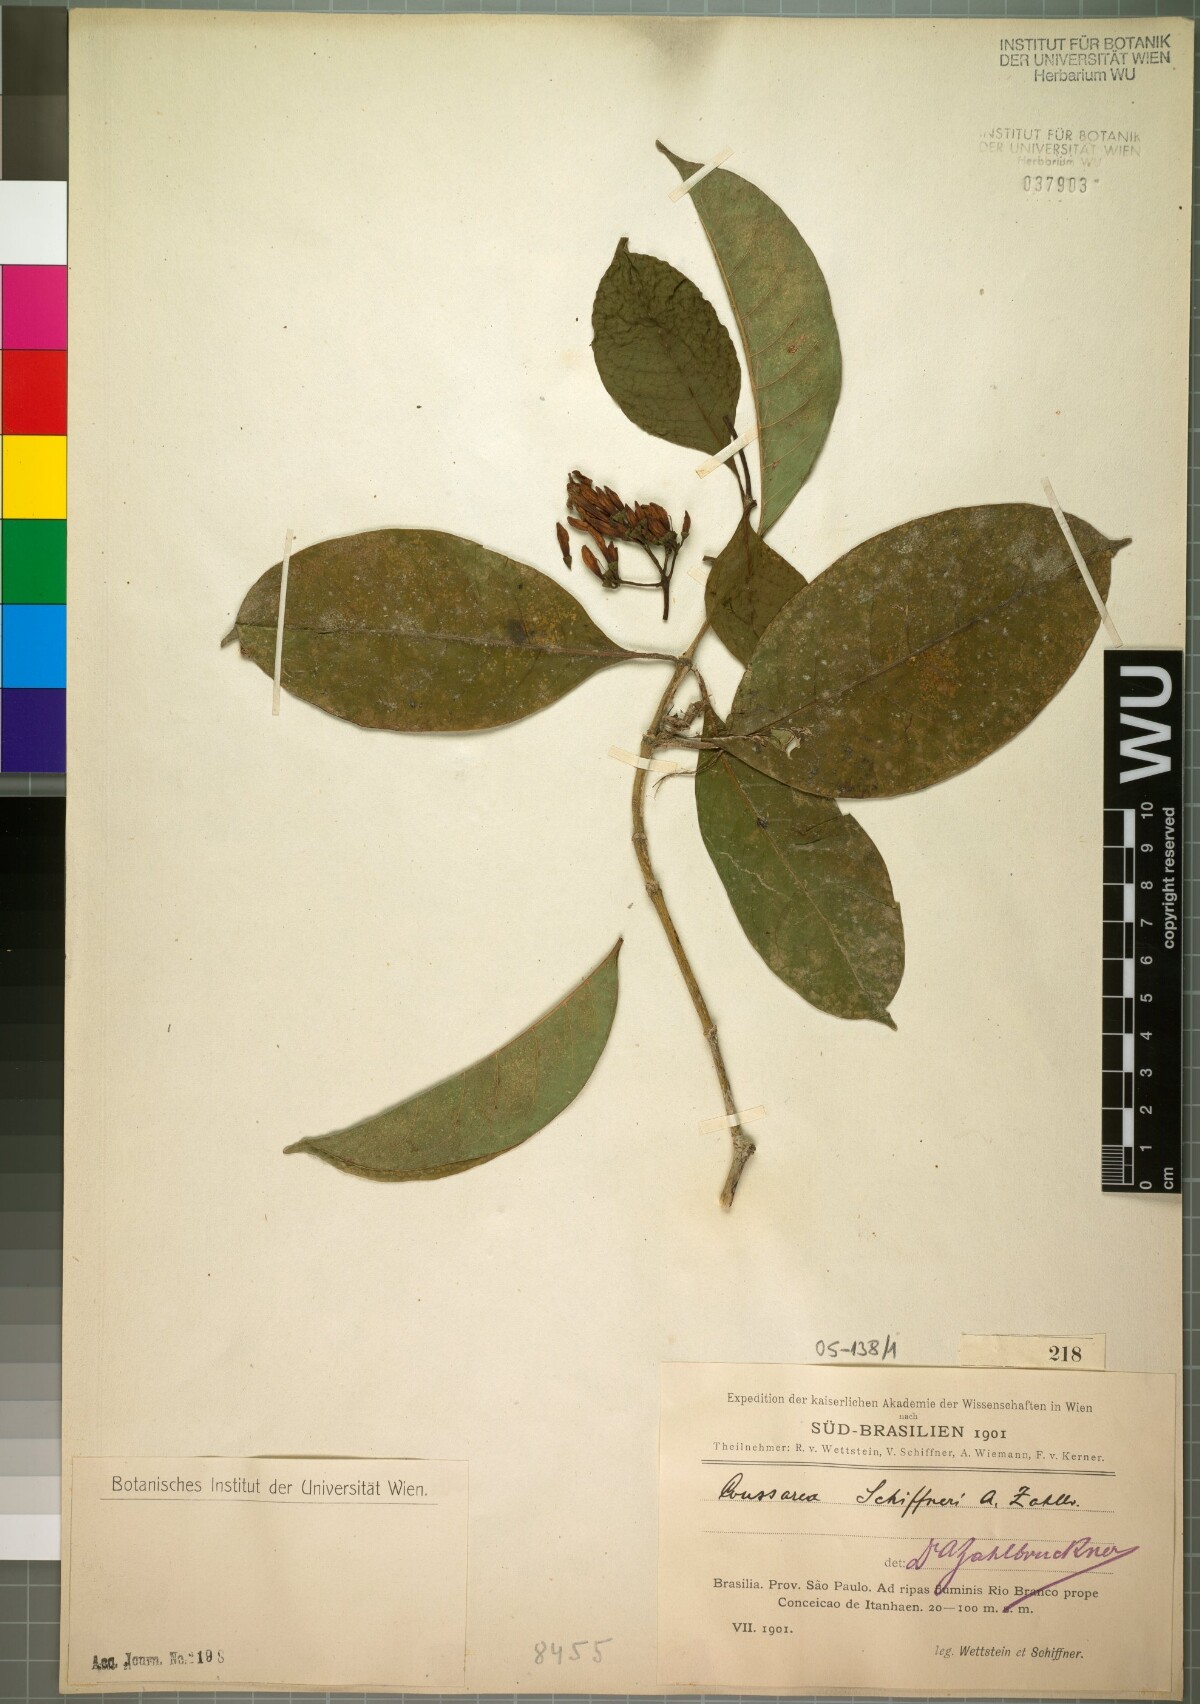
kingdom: Plantae
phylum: Tracheophyta
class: Magnoliopsida
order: Gentianales
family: Rubiaceae
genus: Coussarea
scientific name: Coussarea schiffneri
